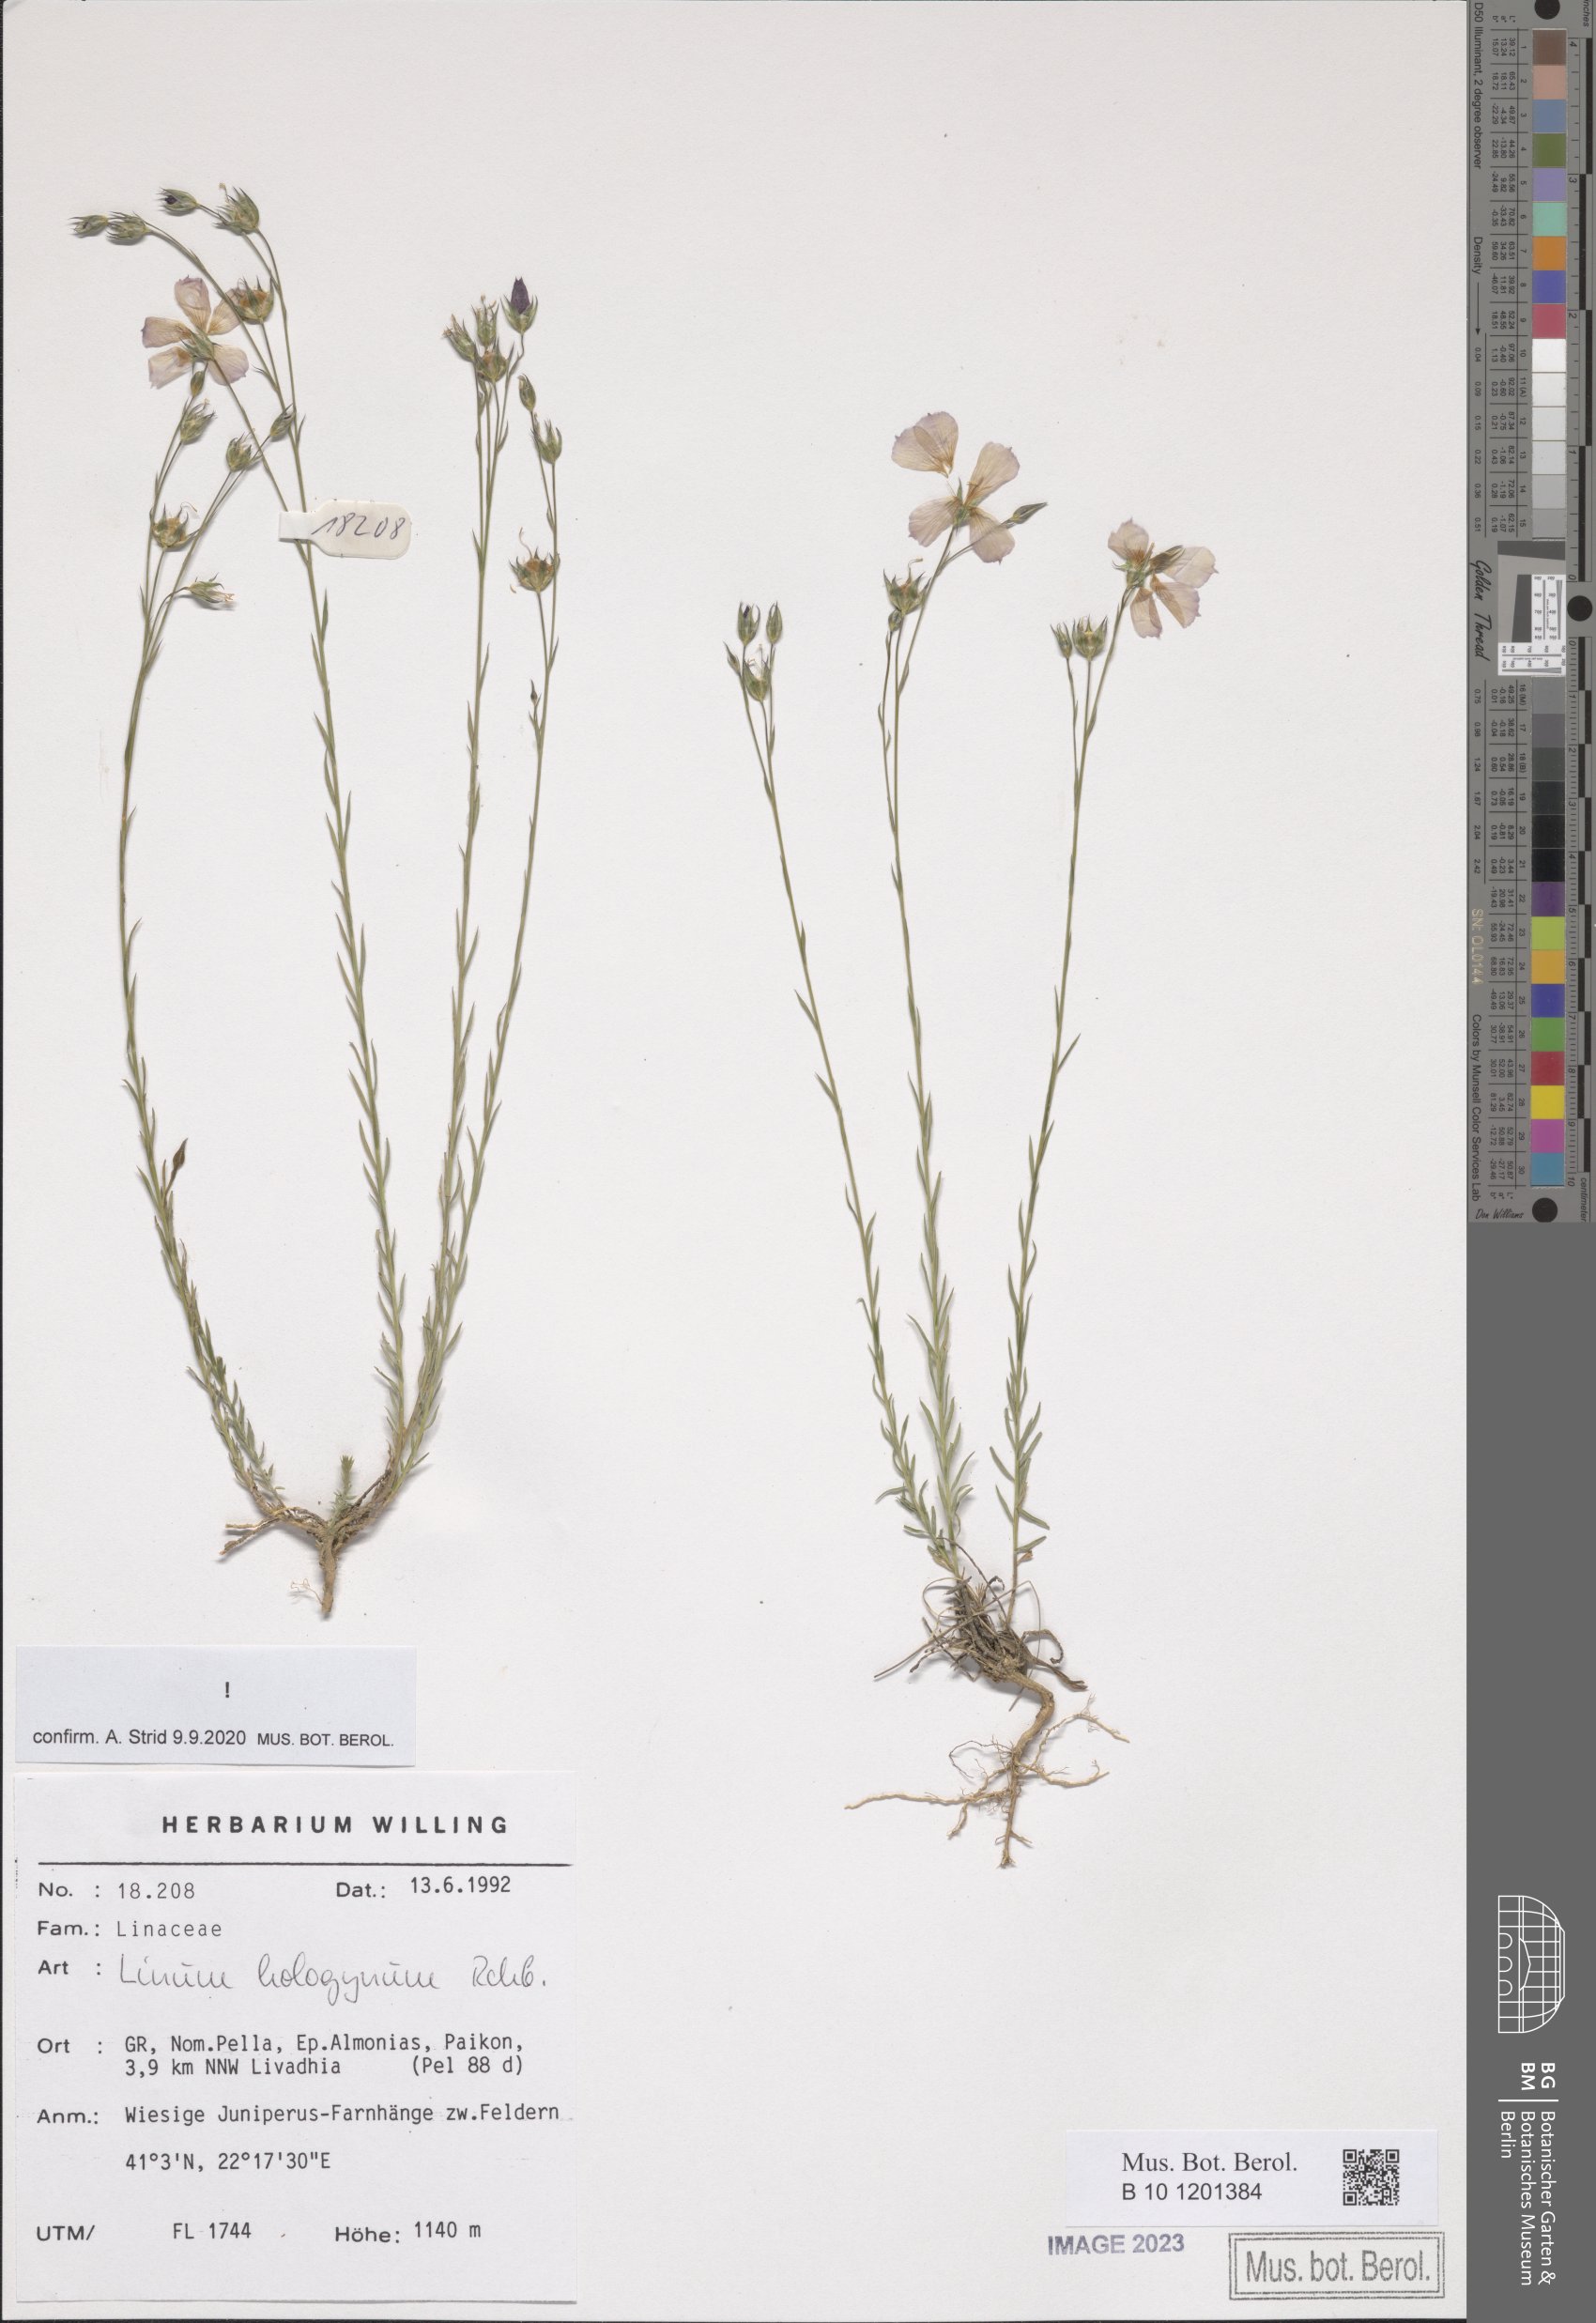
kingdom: Plantae
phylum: Tracheophyta
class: Magnoliopsida
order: Malpighiales
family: Linaceae
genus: Linum
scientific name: Linum hologynum
